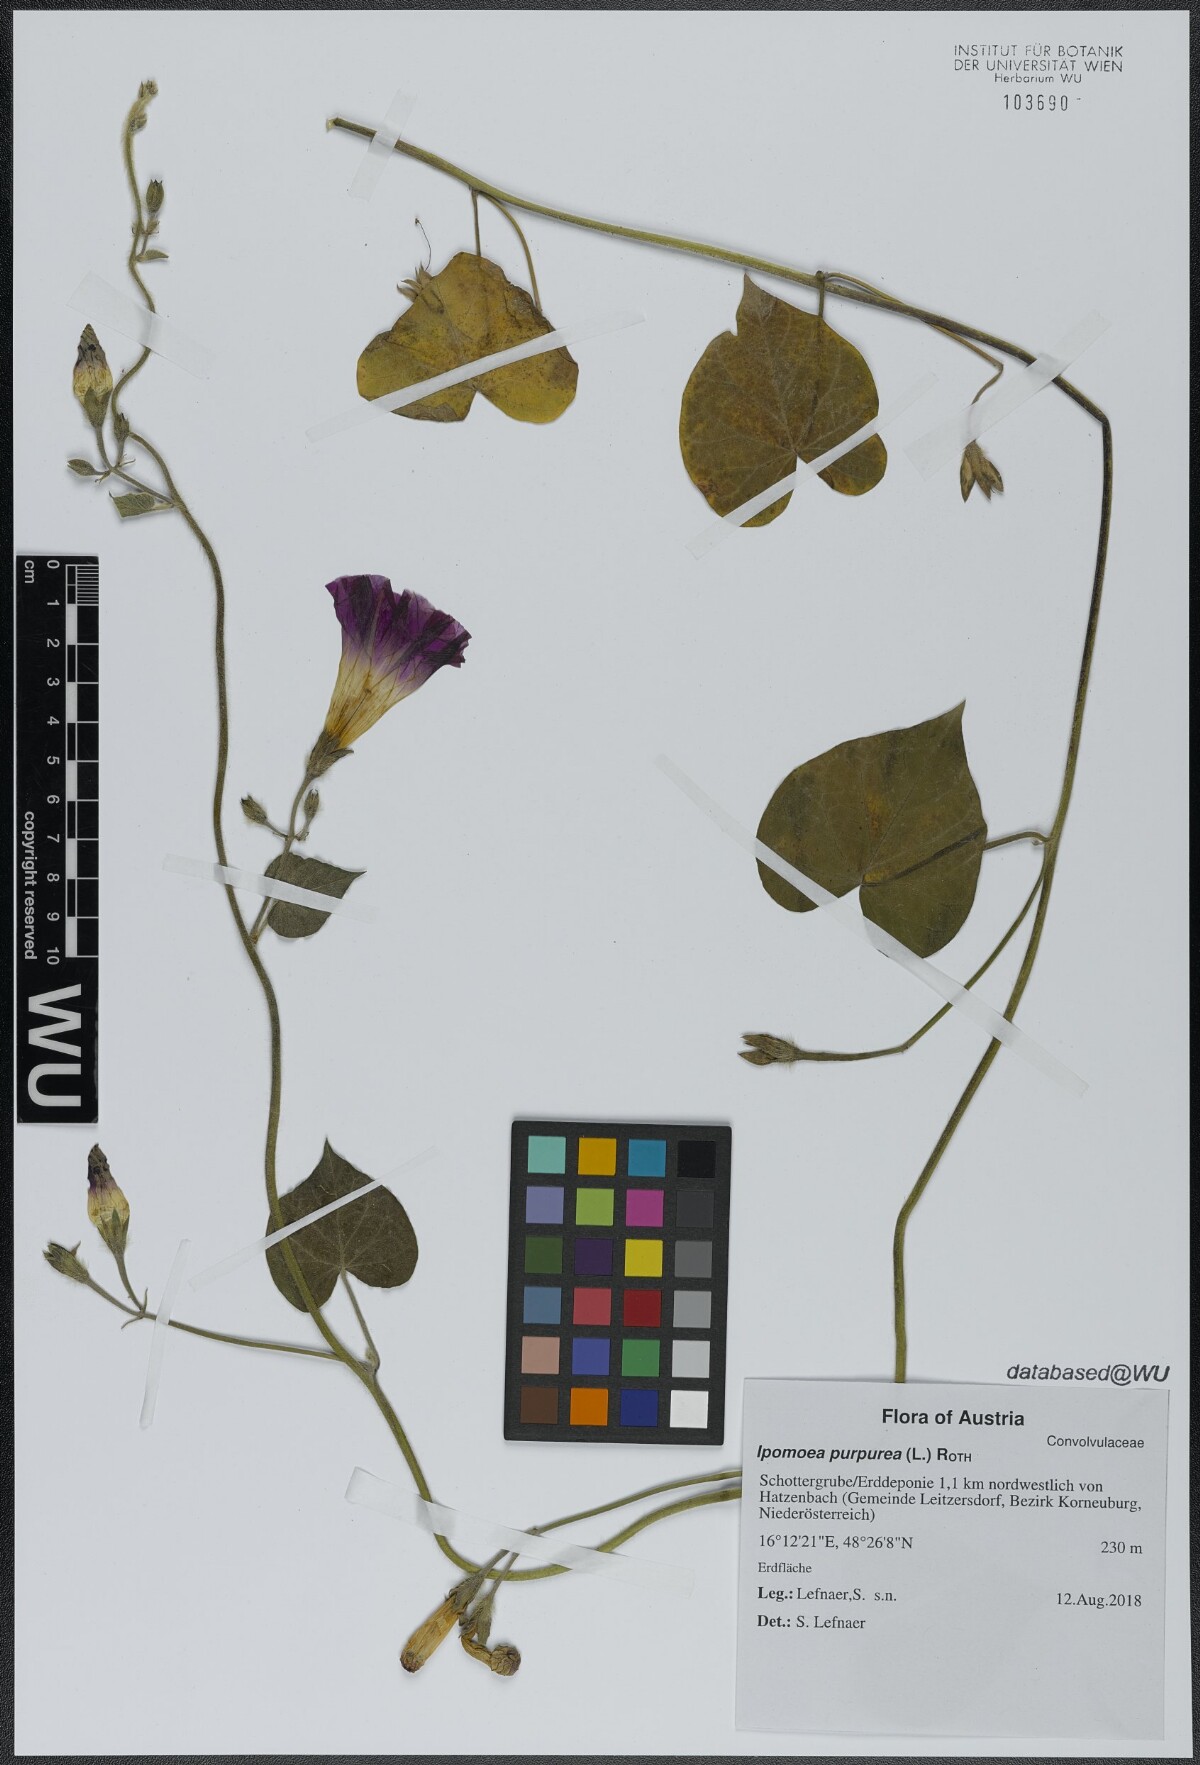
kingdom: Plantae
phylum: Tracheophyta
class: Magnoliopsida
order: Solanales
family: Convolvulaceae
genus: Ipomoea
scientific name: Ipomoea purpurea
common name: Common morning-glory
